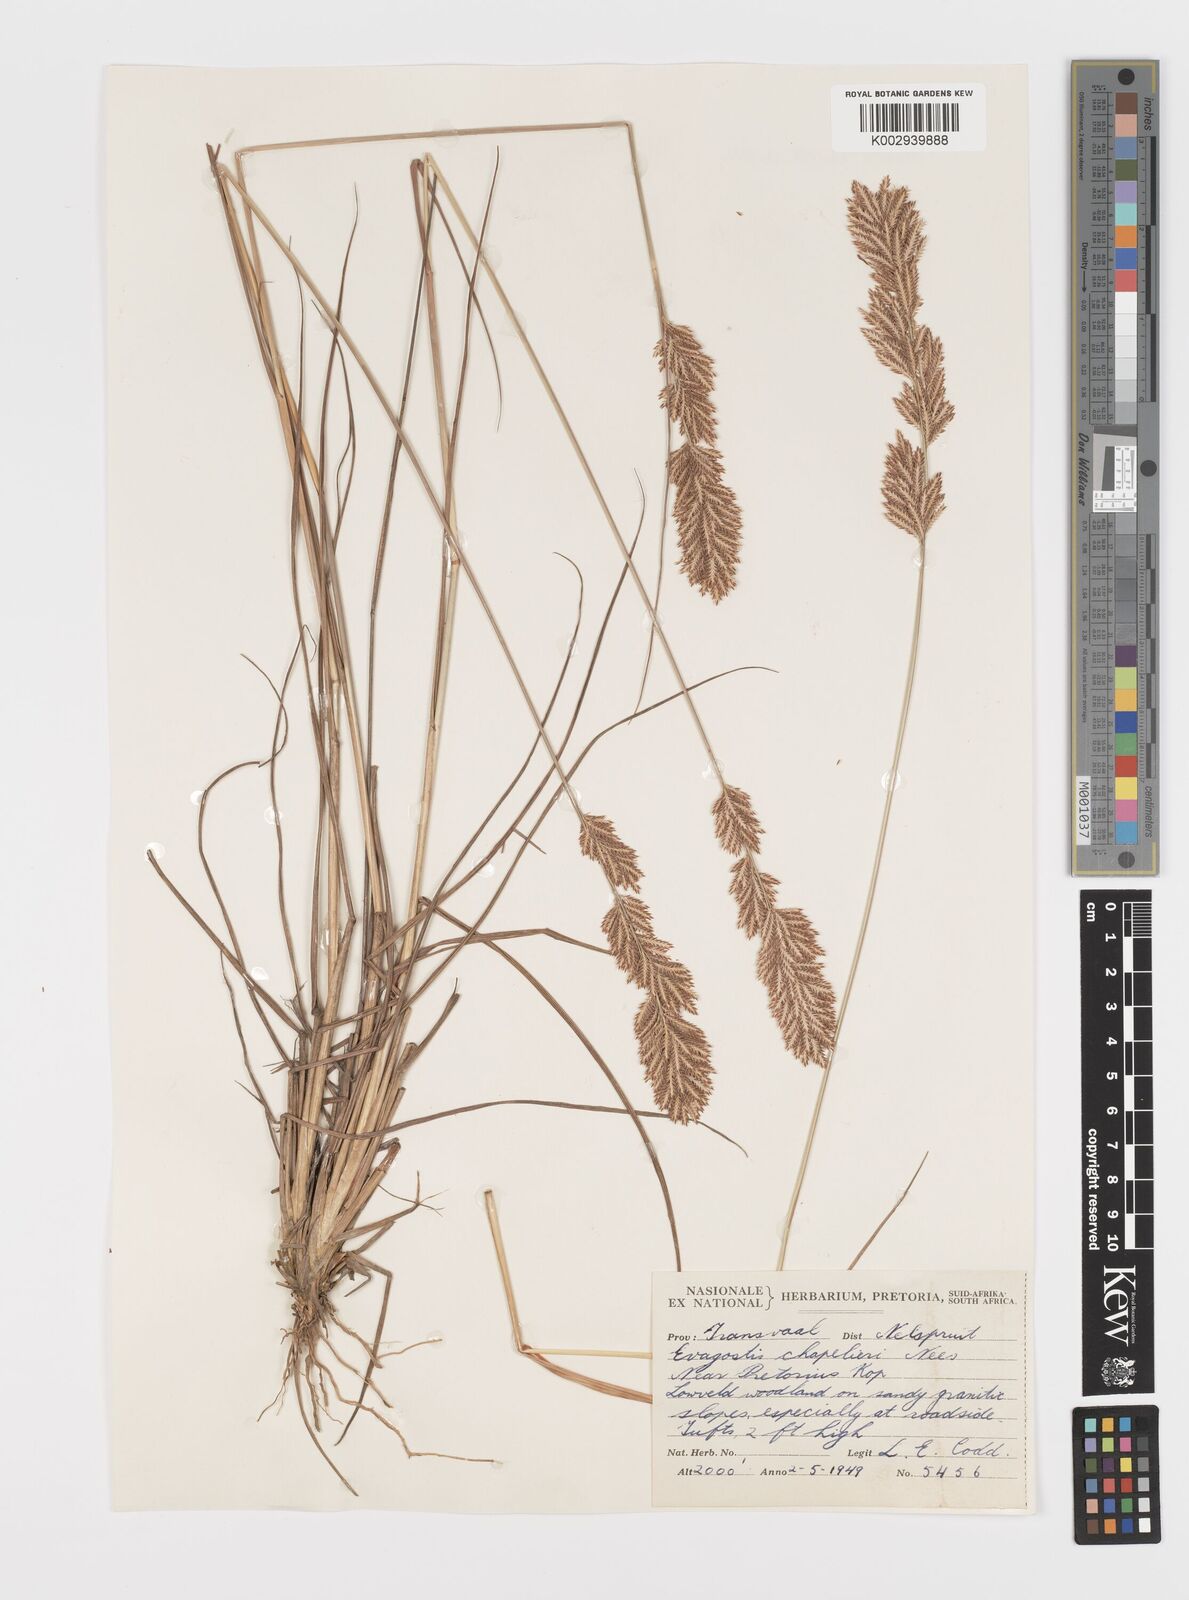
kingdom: Plantae
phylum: Tracheophyta
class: Liliopsida
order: Poales
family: Poaceae
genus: Eragrostis
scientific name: Eragrostis chapelieri
